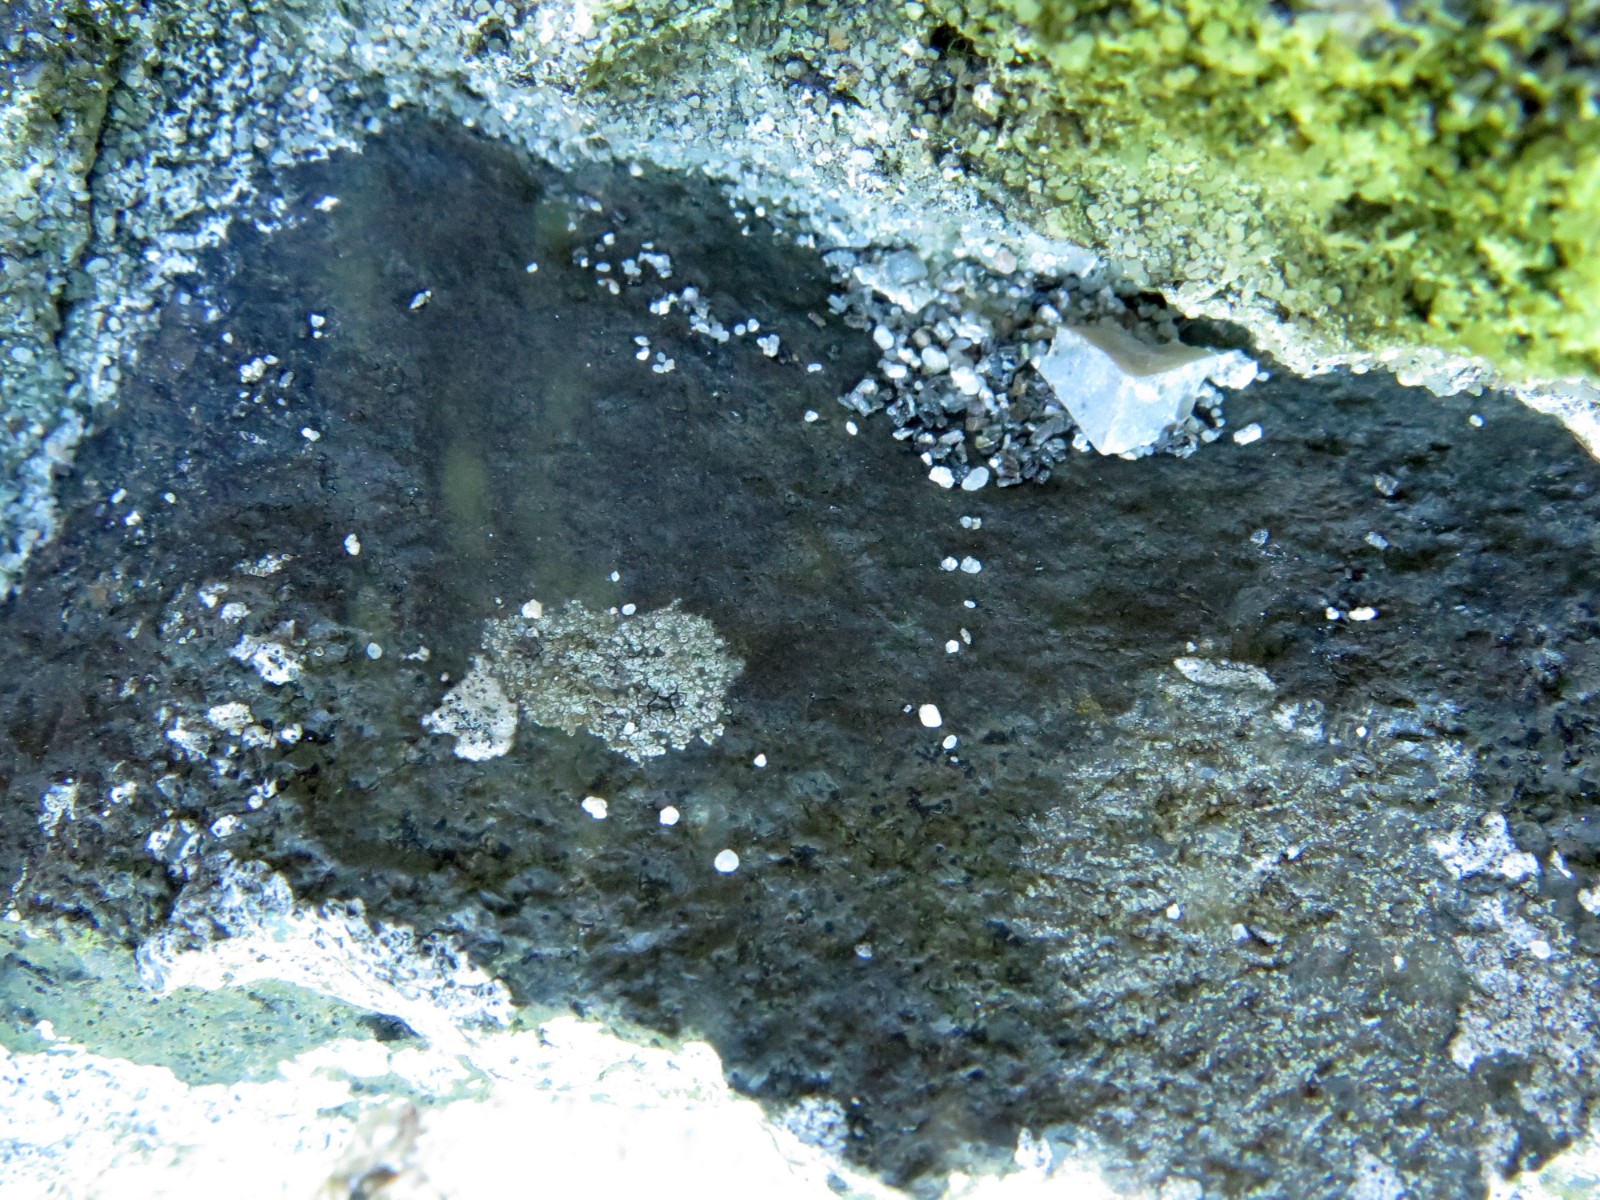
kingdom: Fungi
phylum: Ascomycota
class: Eurotiomycetes
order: Verrucariales
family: Verrucariaceae
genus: Verrucaria
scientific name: Verrucaria nigrescens
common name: sortbrun vortelav
